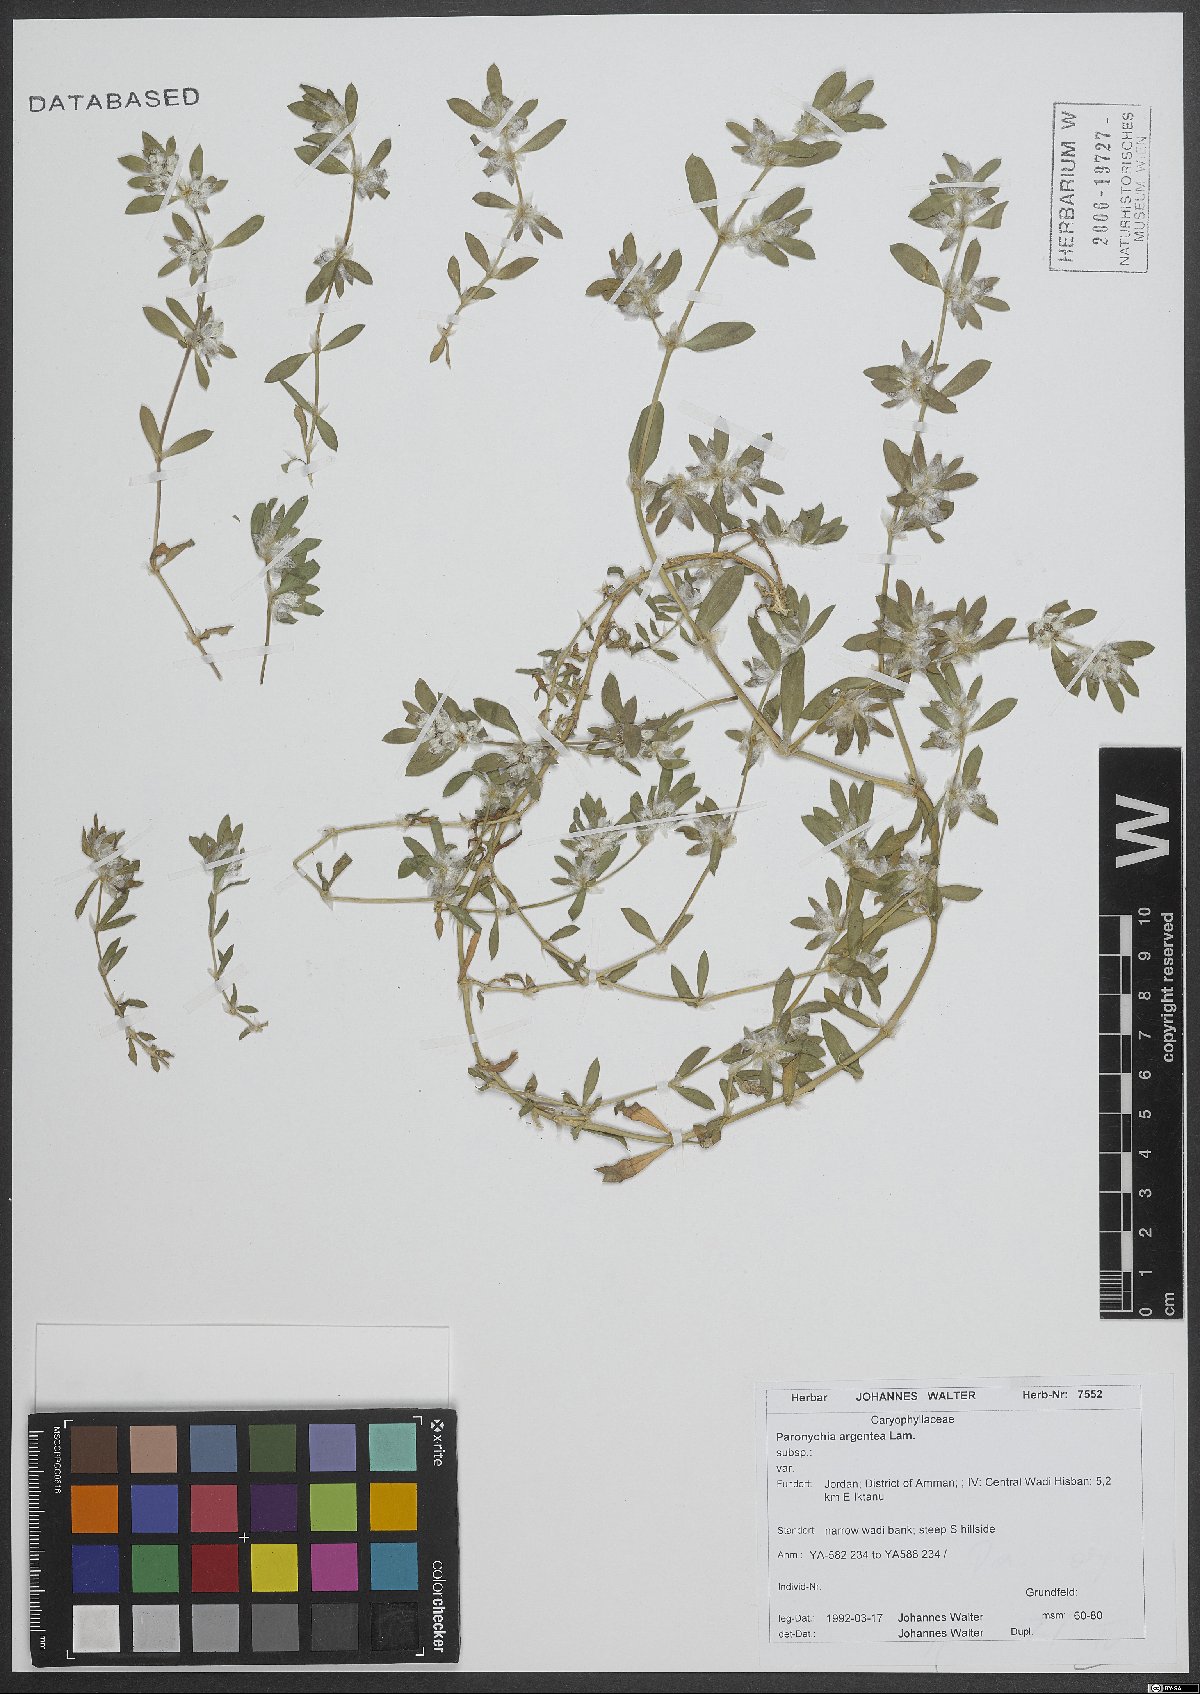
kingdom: Plantae
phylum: Tracheophyta
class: Magnoliopsida
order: Caryophyllales
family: Caryophyllaceae
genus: Paronychia
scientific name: Paronychia argentea
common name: Silver nailroot
